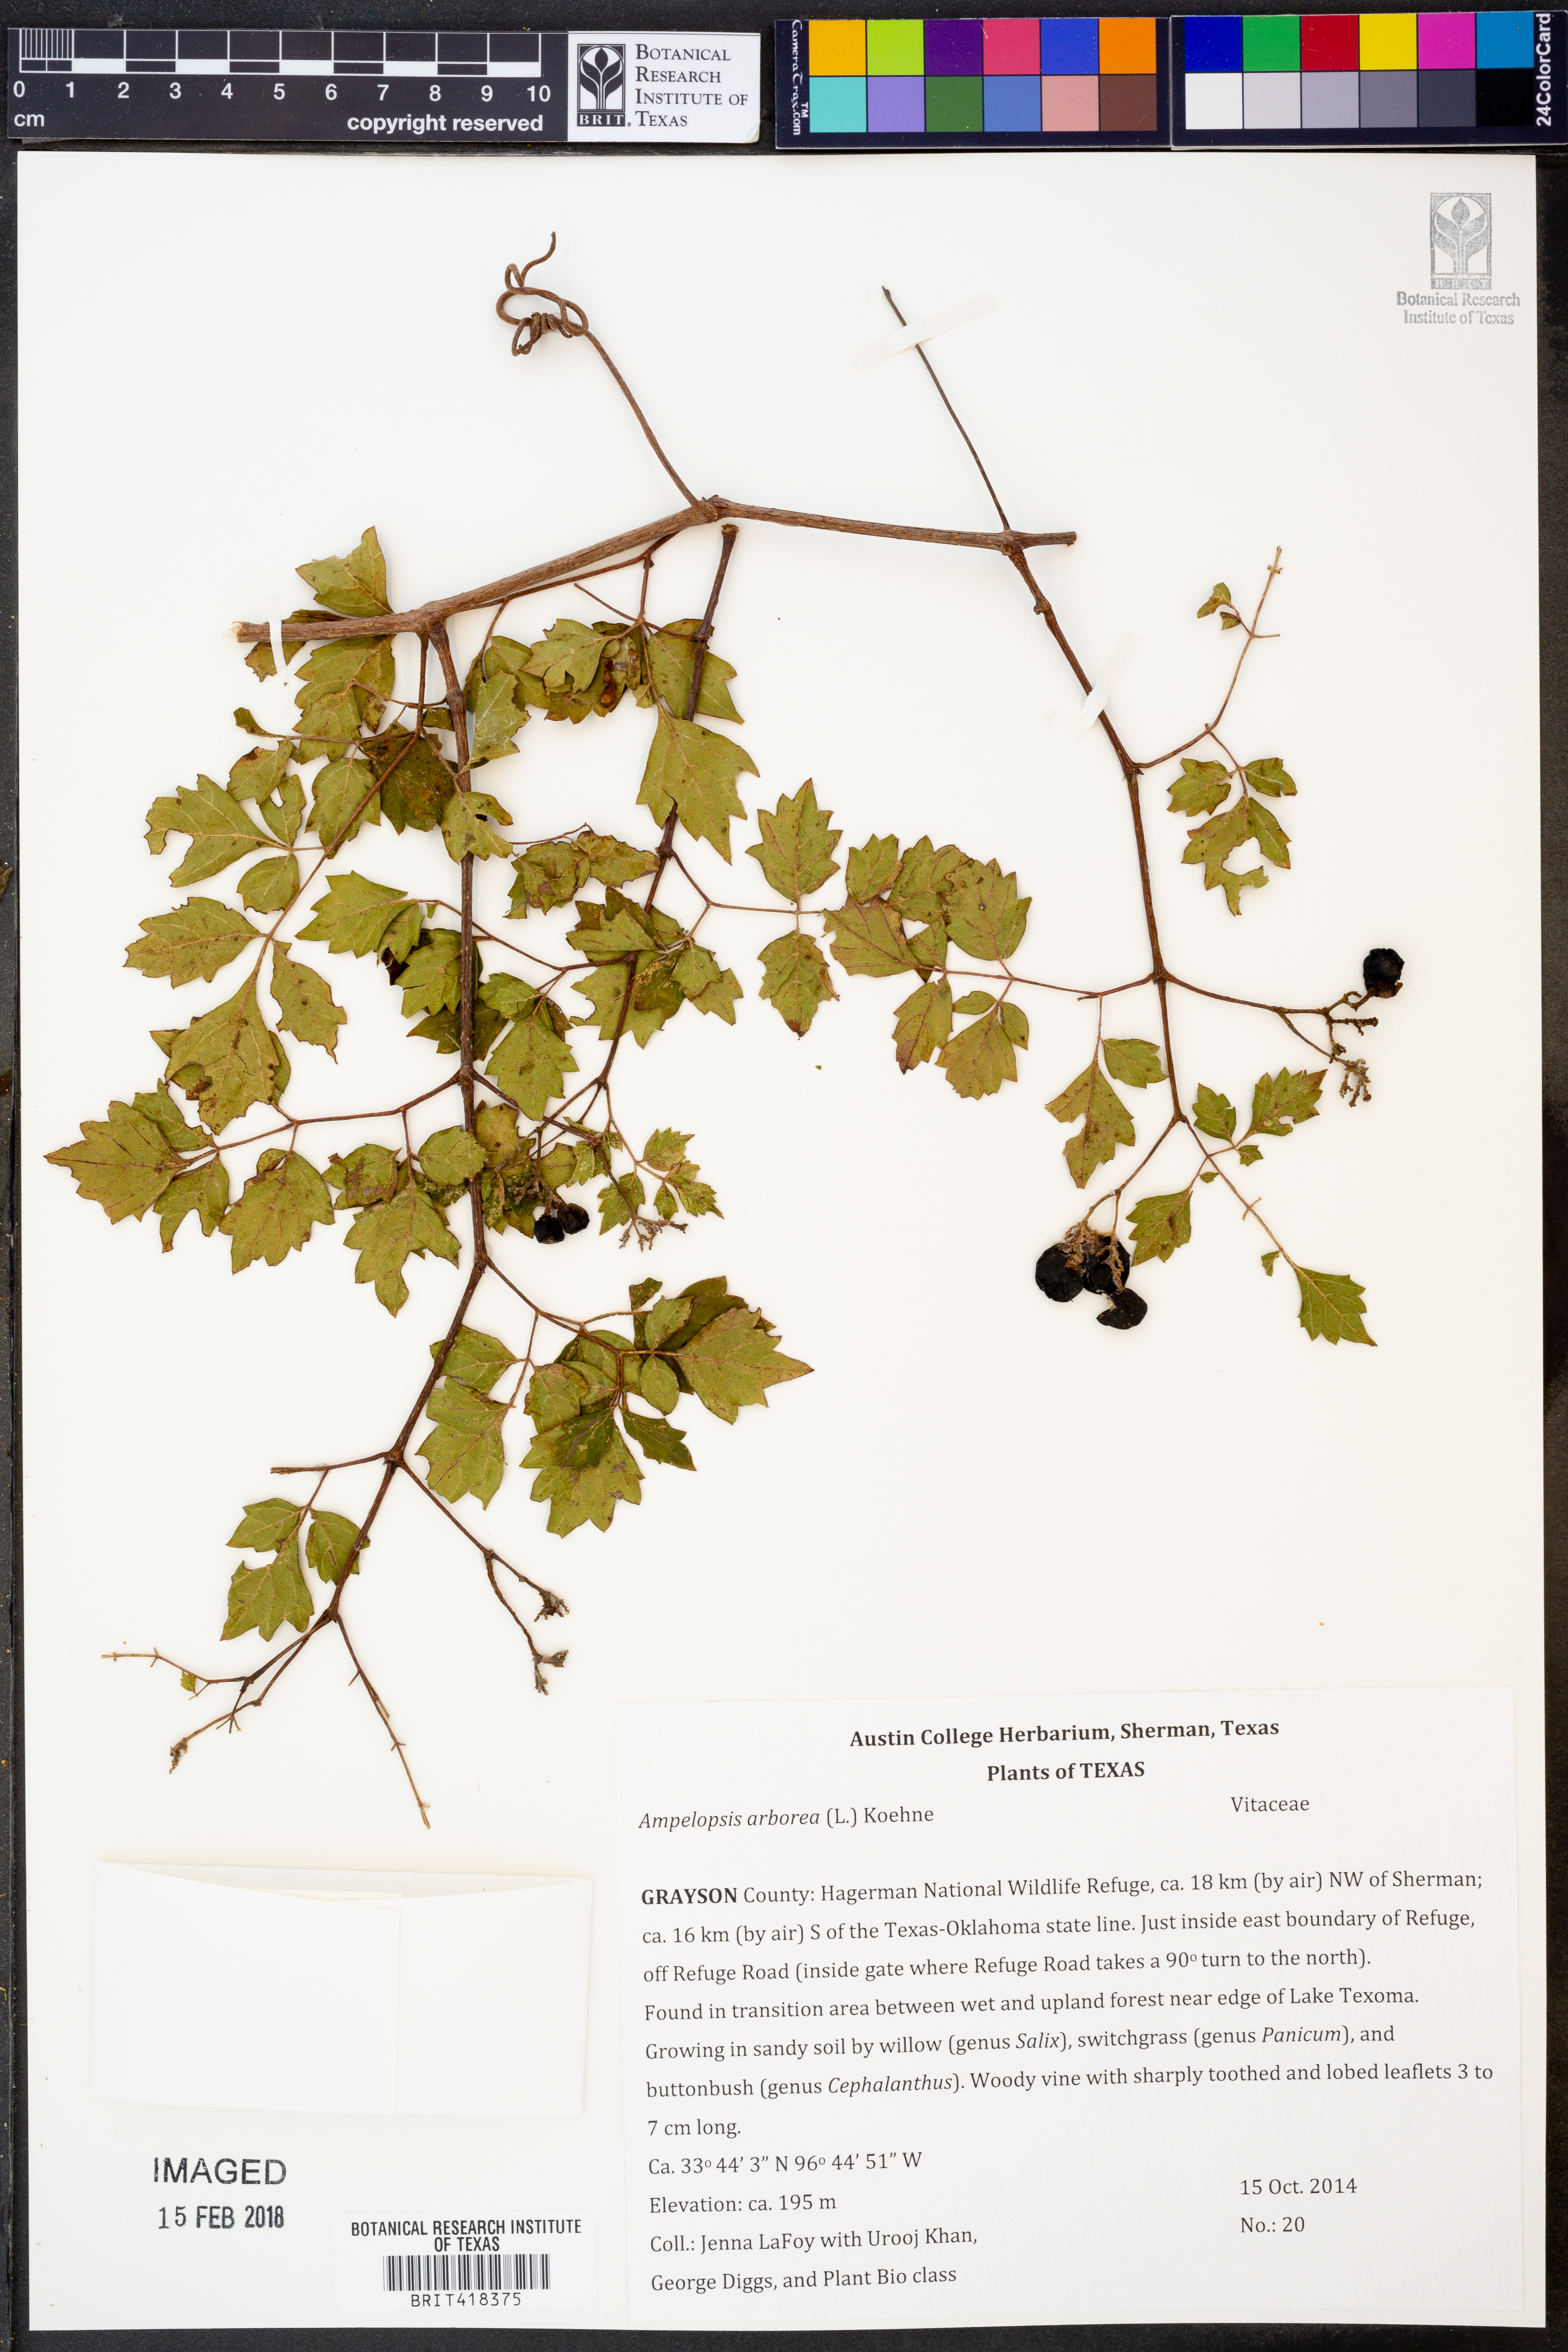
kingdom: Plantae
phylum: Tracheophyta
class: Magnoliopsida
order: Vitales
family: Vitaceae
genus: Nekemias
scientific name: Nekemias arborea
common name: Peppervine
